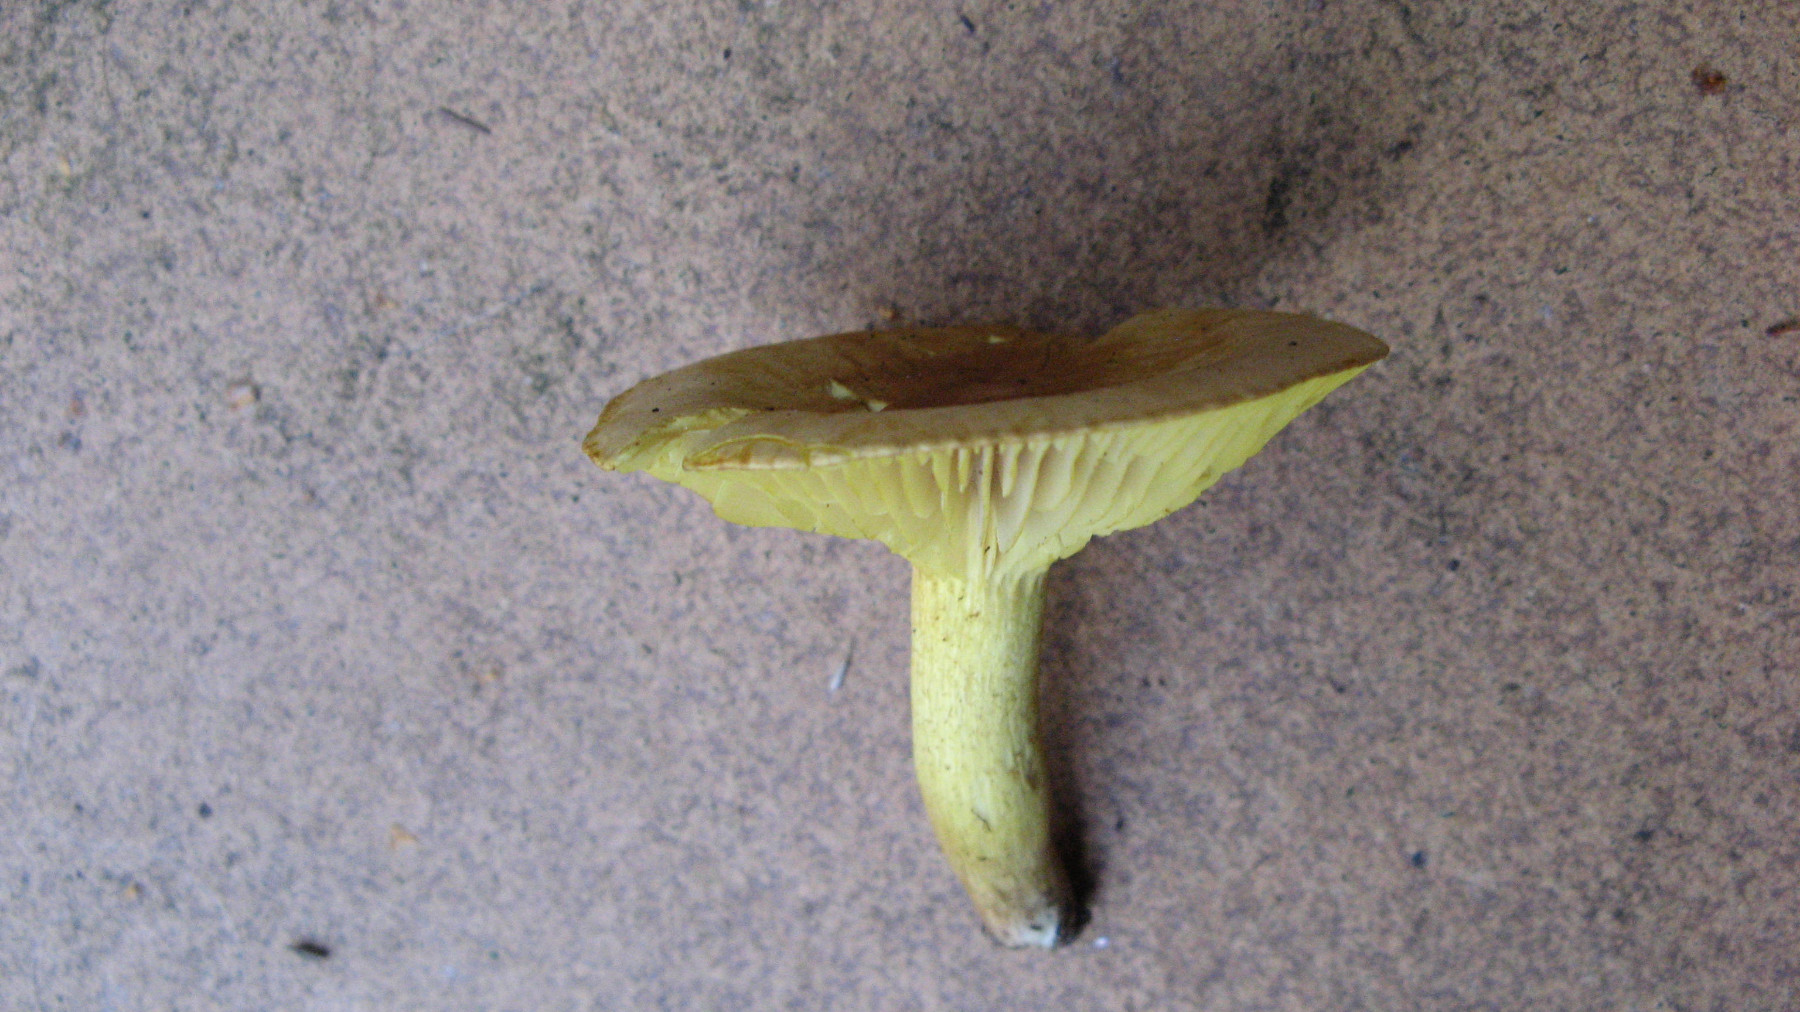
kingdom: Fungi
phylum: Basidiomycota
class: Agaricomycetes
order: Agaricales
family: Tricholomataceae
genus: Tricholoma
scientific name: Tricholoma sulphureum
